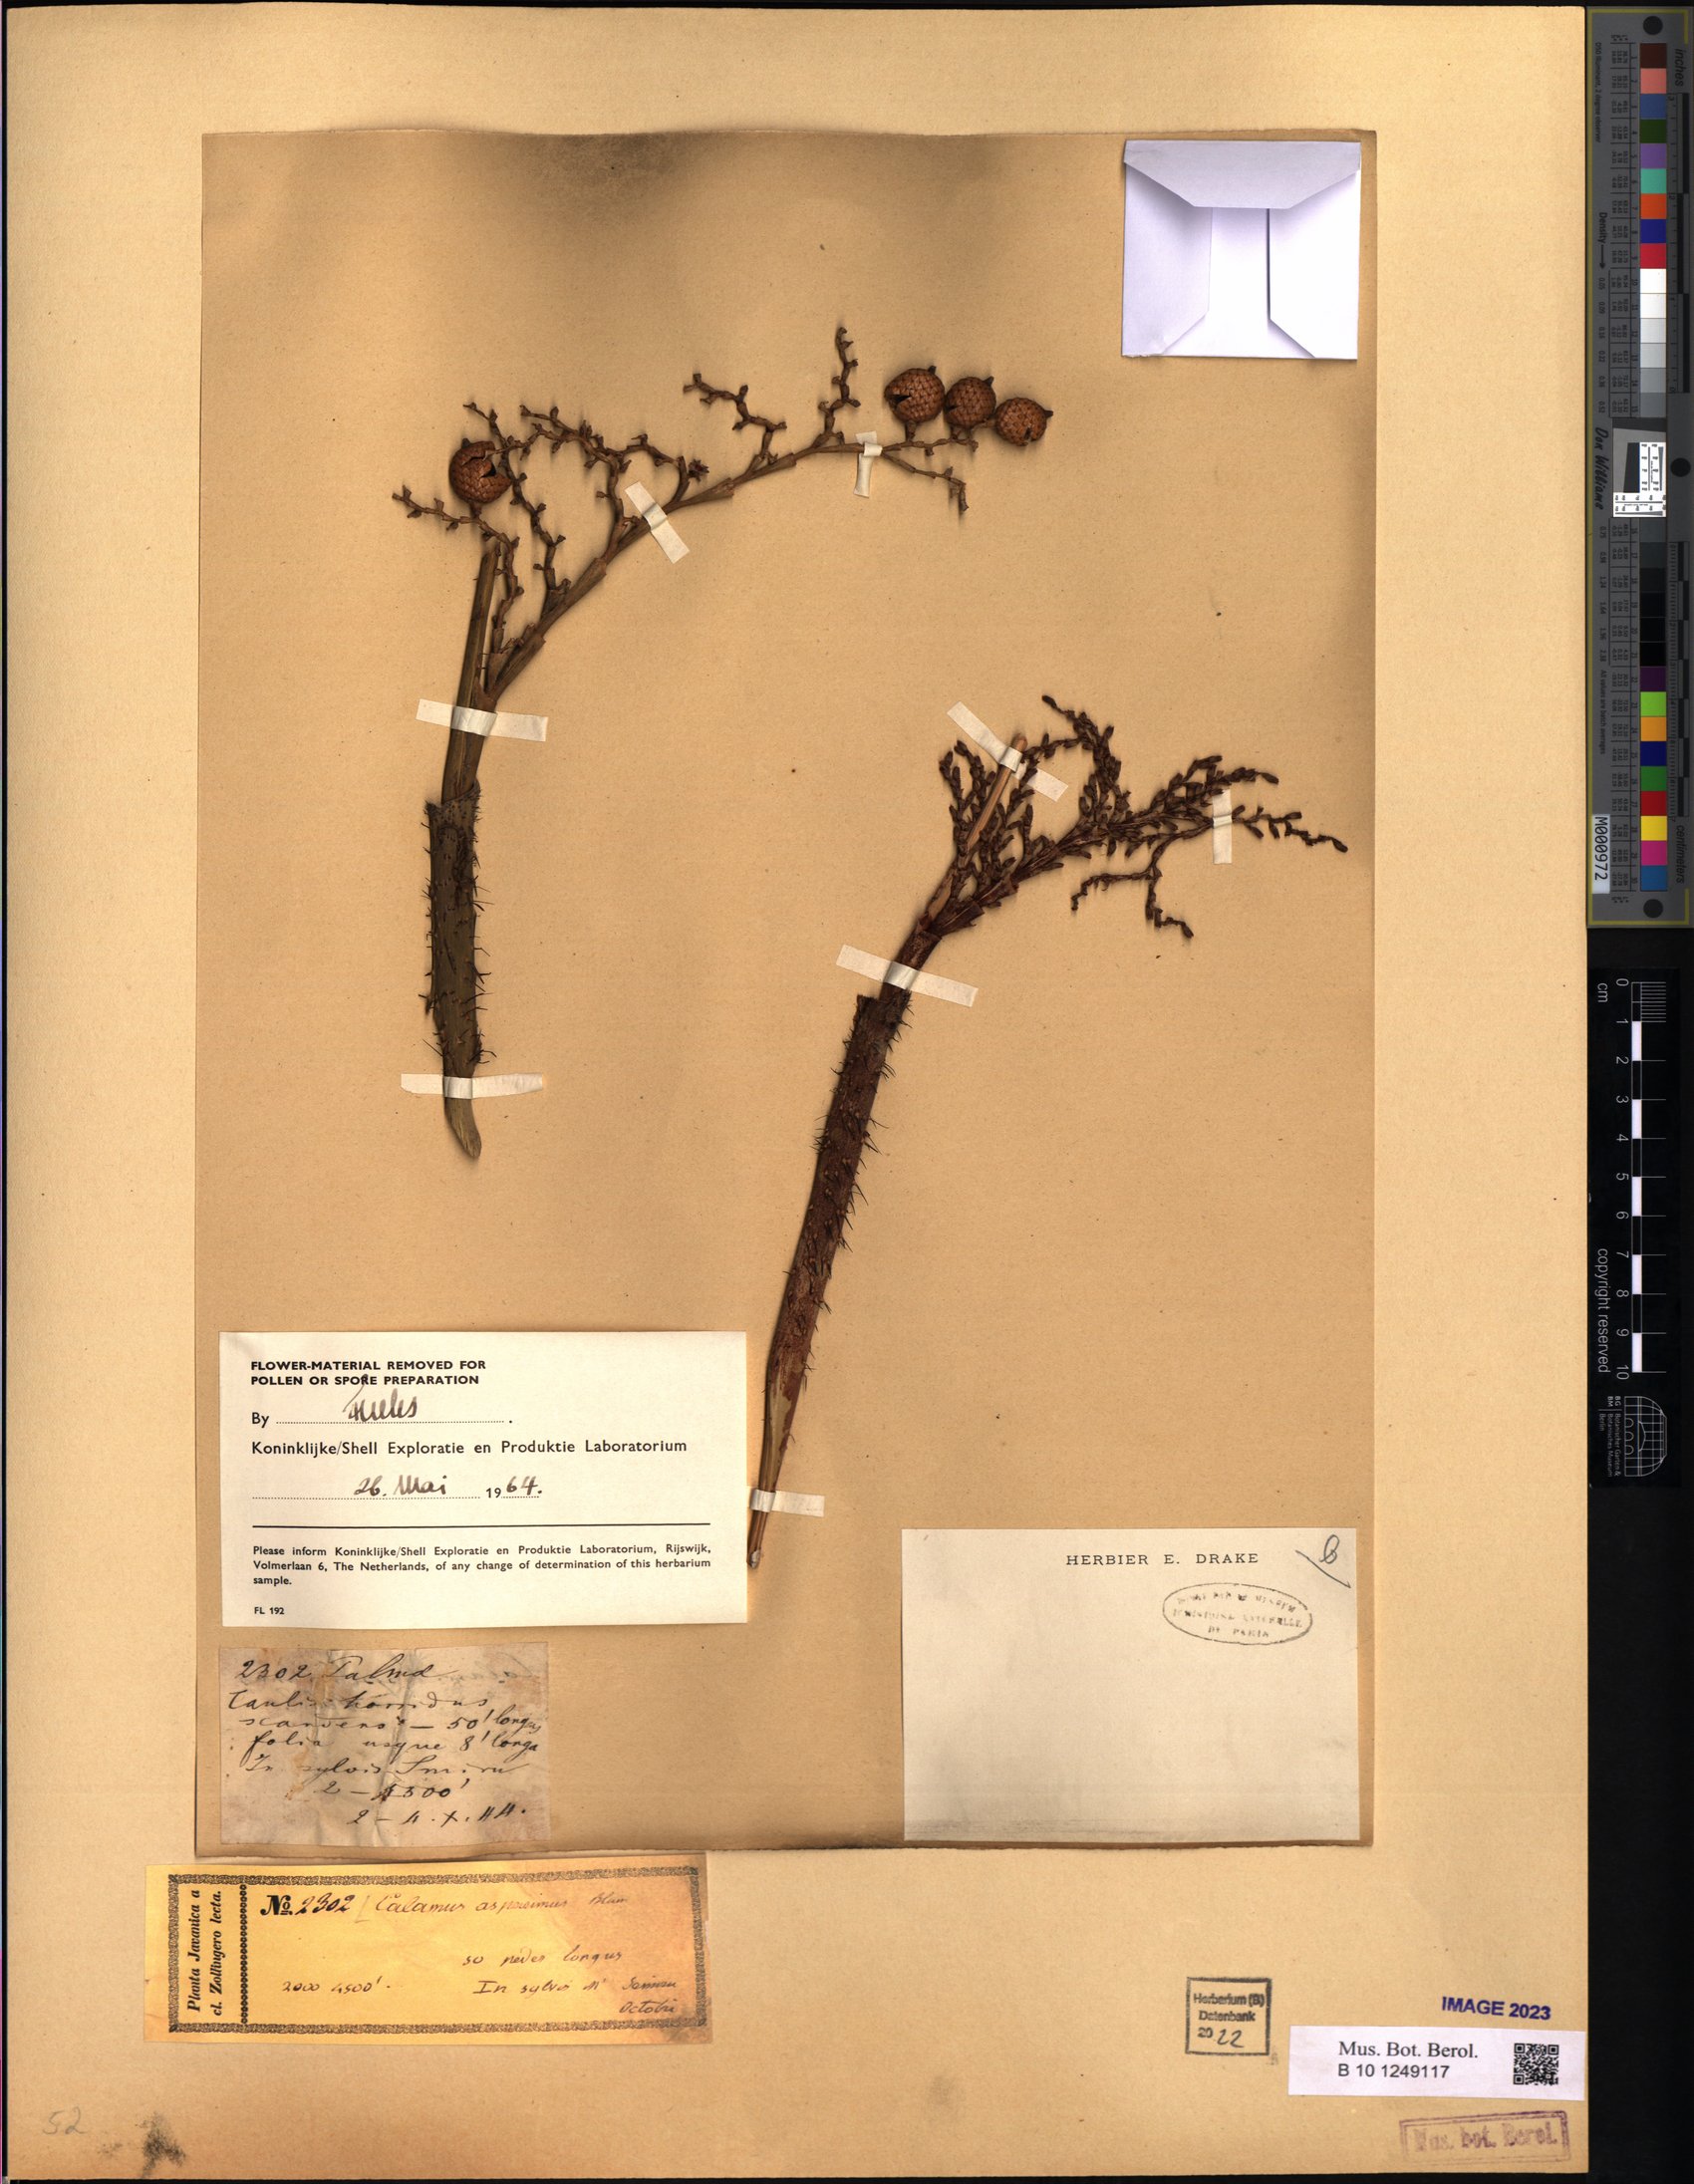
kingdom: Plantae
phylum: Tracheophyta
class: Liliopsida
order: Arecales
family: Arecaceae
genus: Calamus
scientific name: Calamus asperrimus
